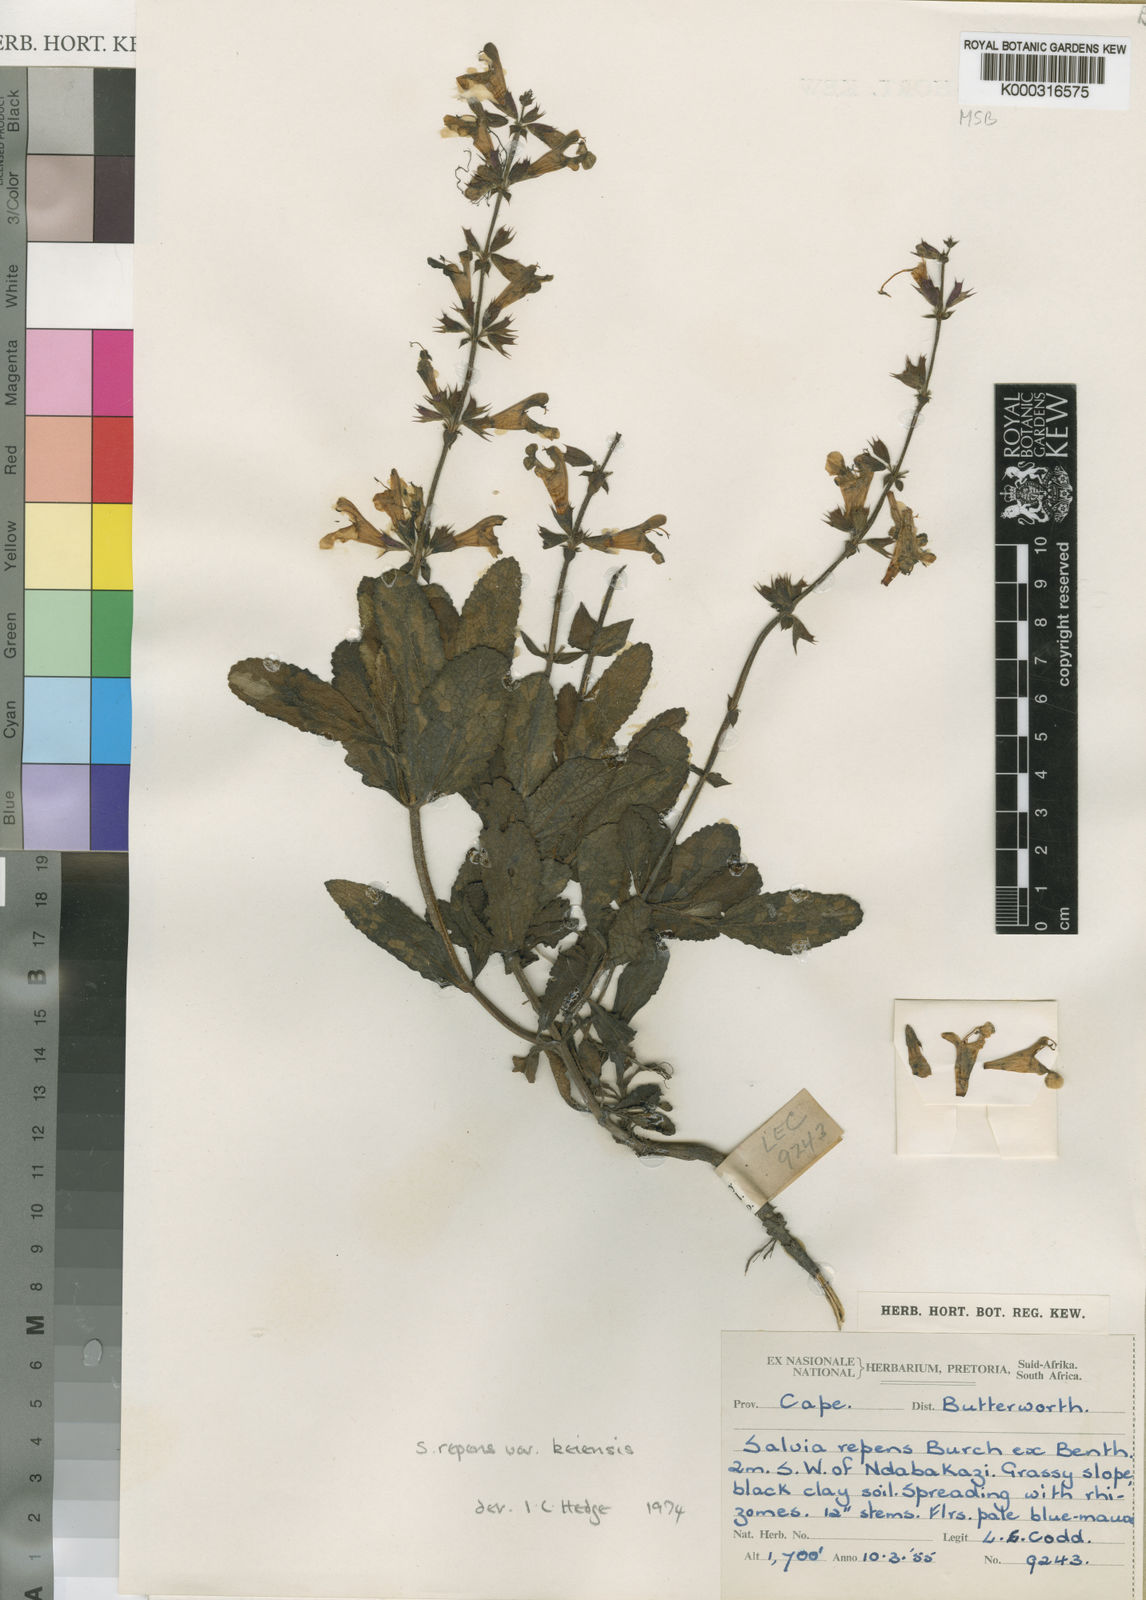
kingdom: Plantae
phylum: Tracheophyta
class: Magnoliopsida
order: Lamiales
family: Lamiaceae
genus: Salvia
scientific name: Salvia repens
